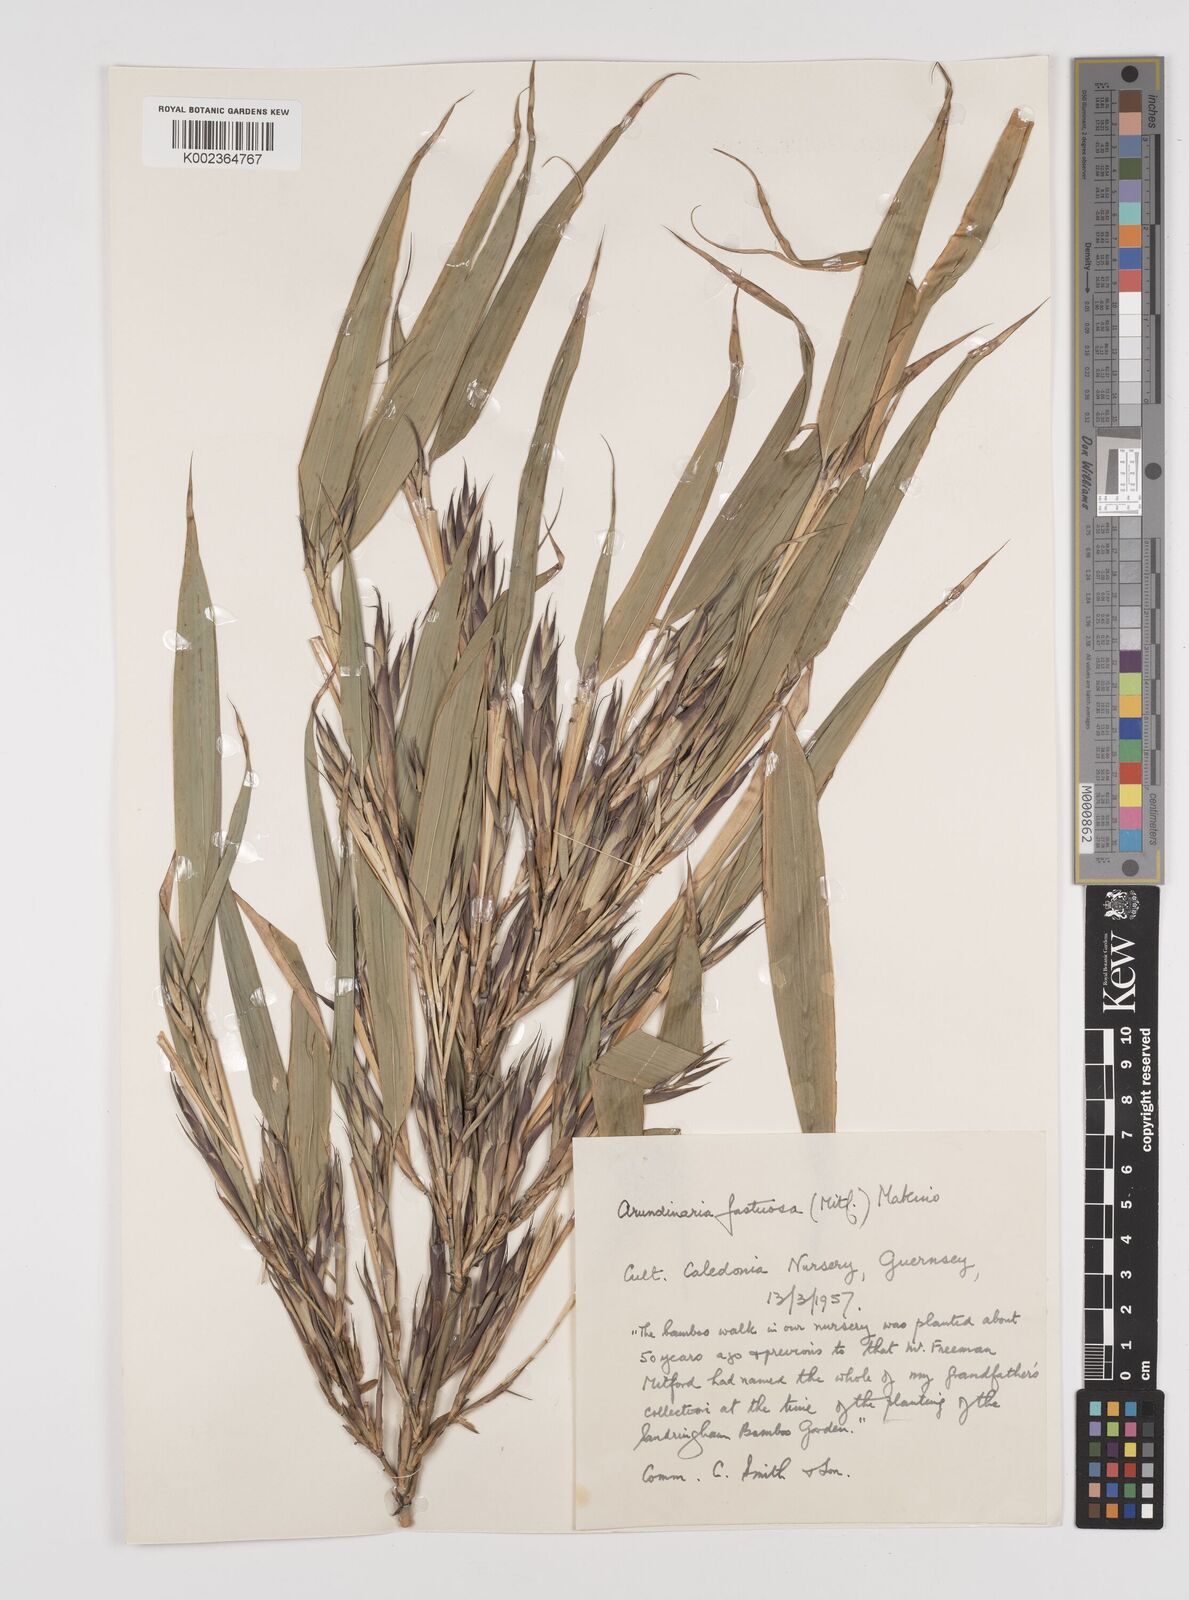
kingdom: Plantae
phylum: Tracheophyta
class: Liliopsida
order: Poales
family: Poaceae
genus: Semiarundinaria
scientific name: Semiarundinaria fastuosa
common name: Narihira bamboo
